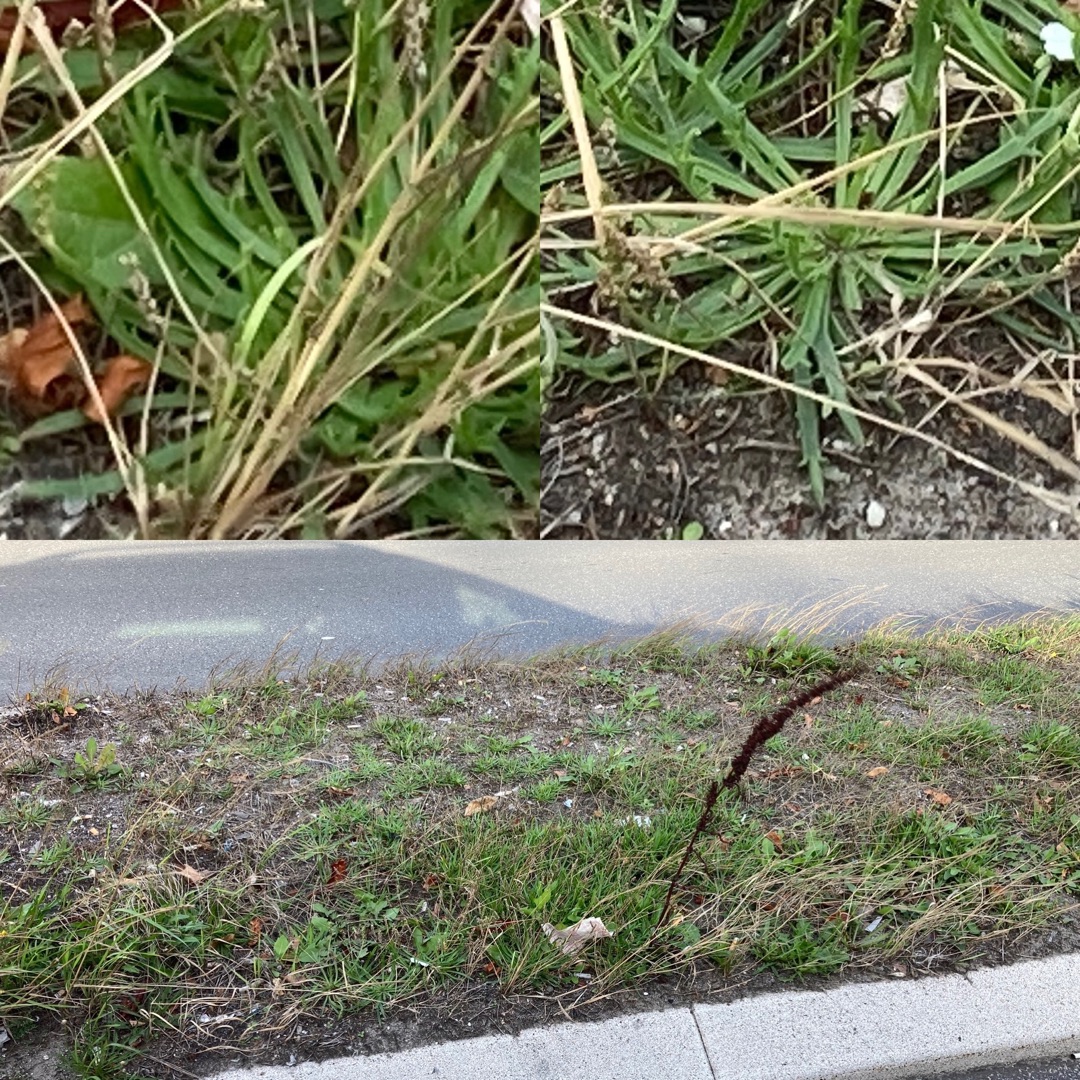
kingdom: Plantae
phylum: Tracheophyta
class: Magnoliopsida
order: Lamiales
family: Plantaginaceae
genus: Plantago
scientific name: Plantago coronopus
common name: Fliget vejbred
